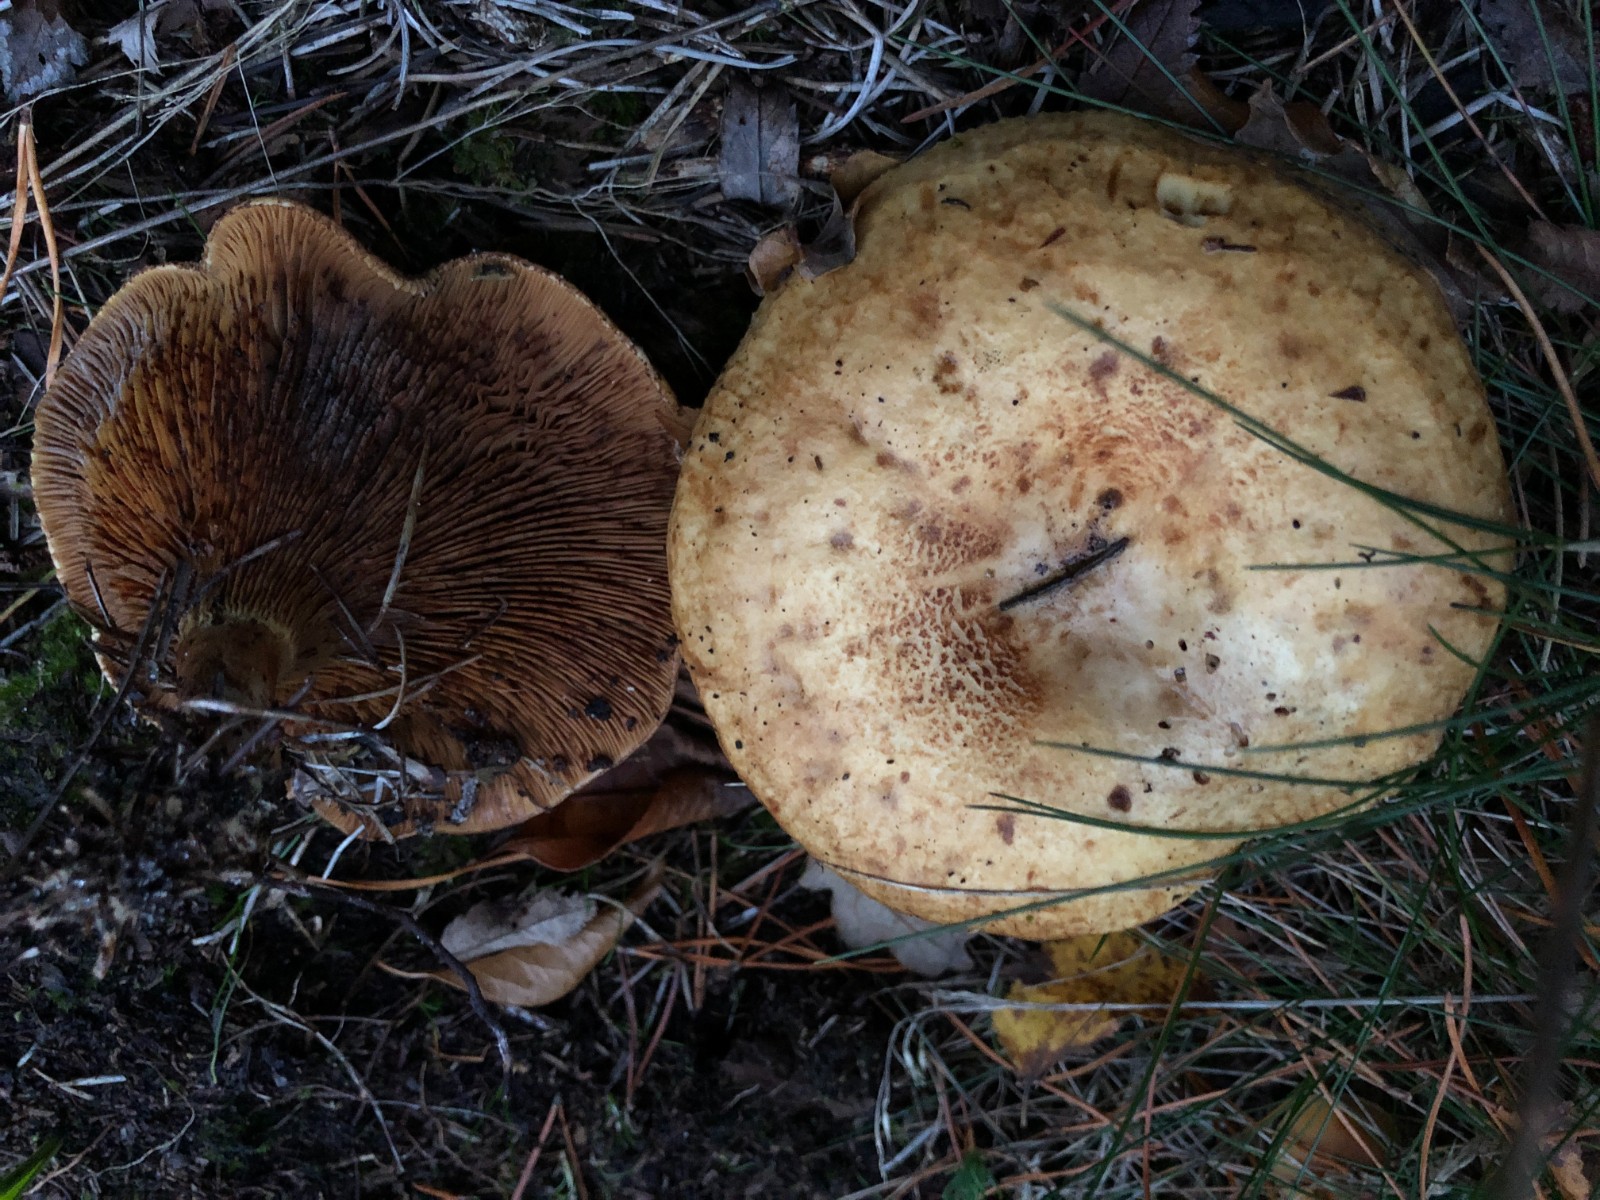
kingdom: Fungi
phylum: Basidiomycota
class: Agaricomycetes
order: Boletales
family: Paxillaceae
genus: Paxillus
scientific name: Paxillus involutus
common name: almindelig netbladhat
